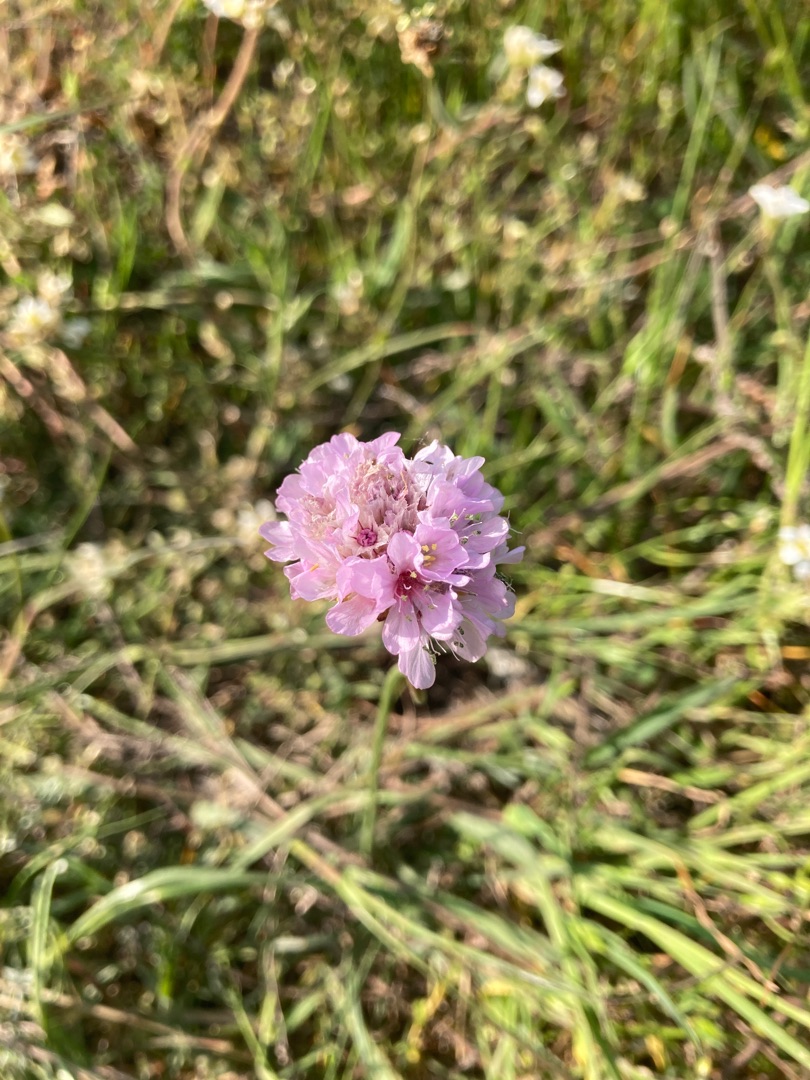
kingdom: Plantae
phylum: Tracheophyta
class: Magnoliopsida
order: Caryophyllales
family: Plumbaginaceae
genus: Armeria
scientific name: Armeria maritima
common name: Engelskgræs
